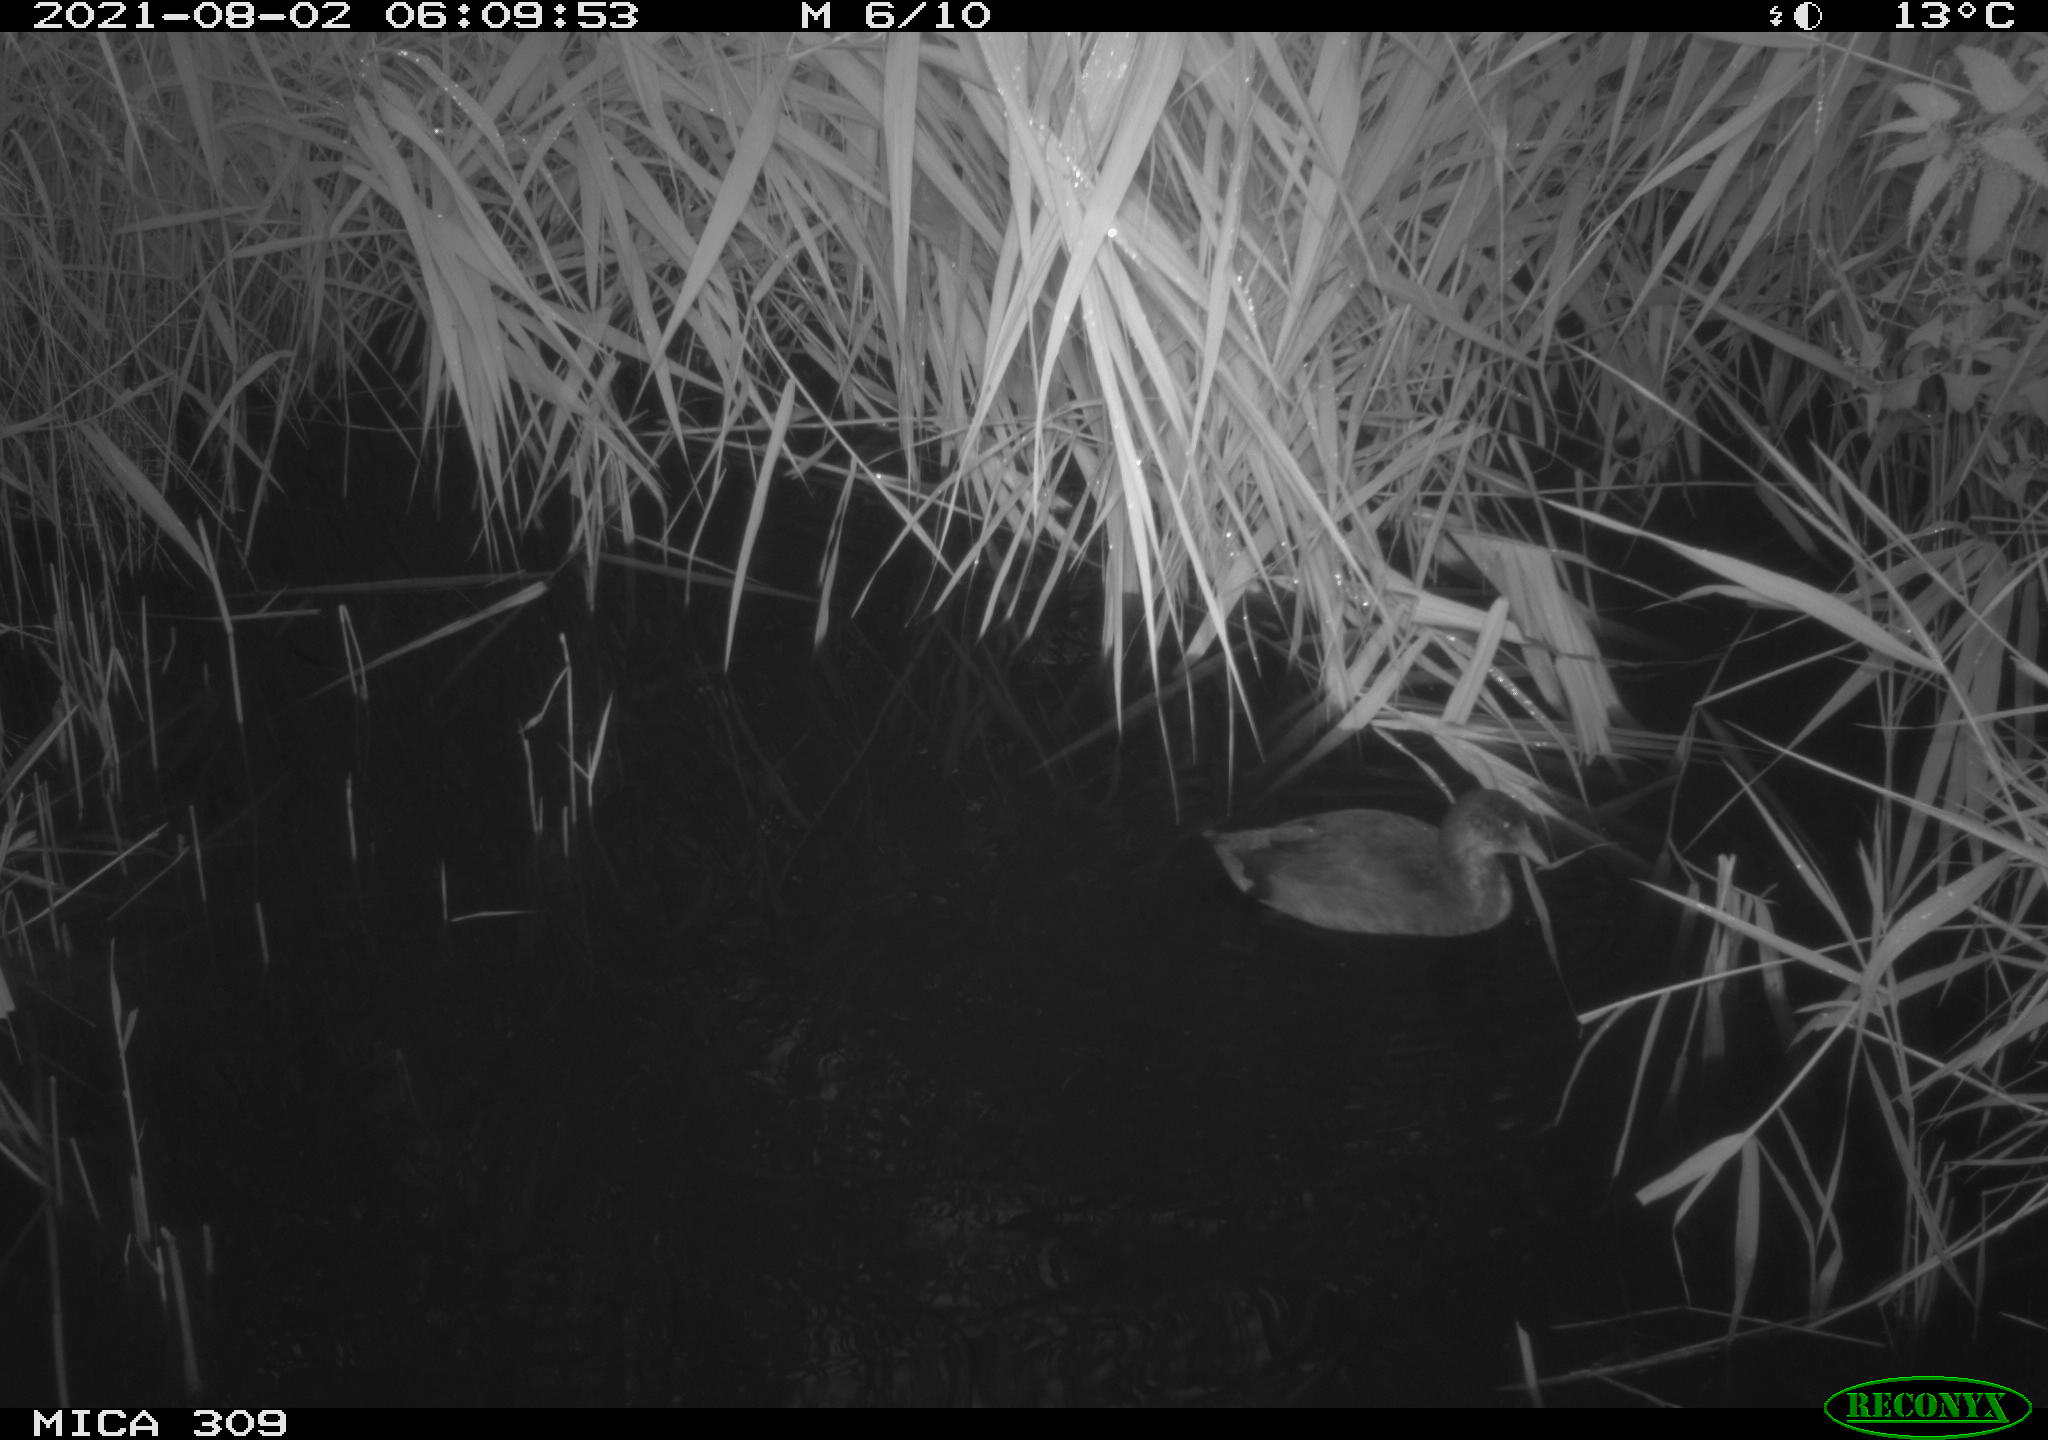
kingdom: Animalia
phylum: Chordata
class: Aves
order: Gruiformes
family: Rallidae
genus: Fulica
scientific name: Fulica atra
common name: Eurasian coot
